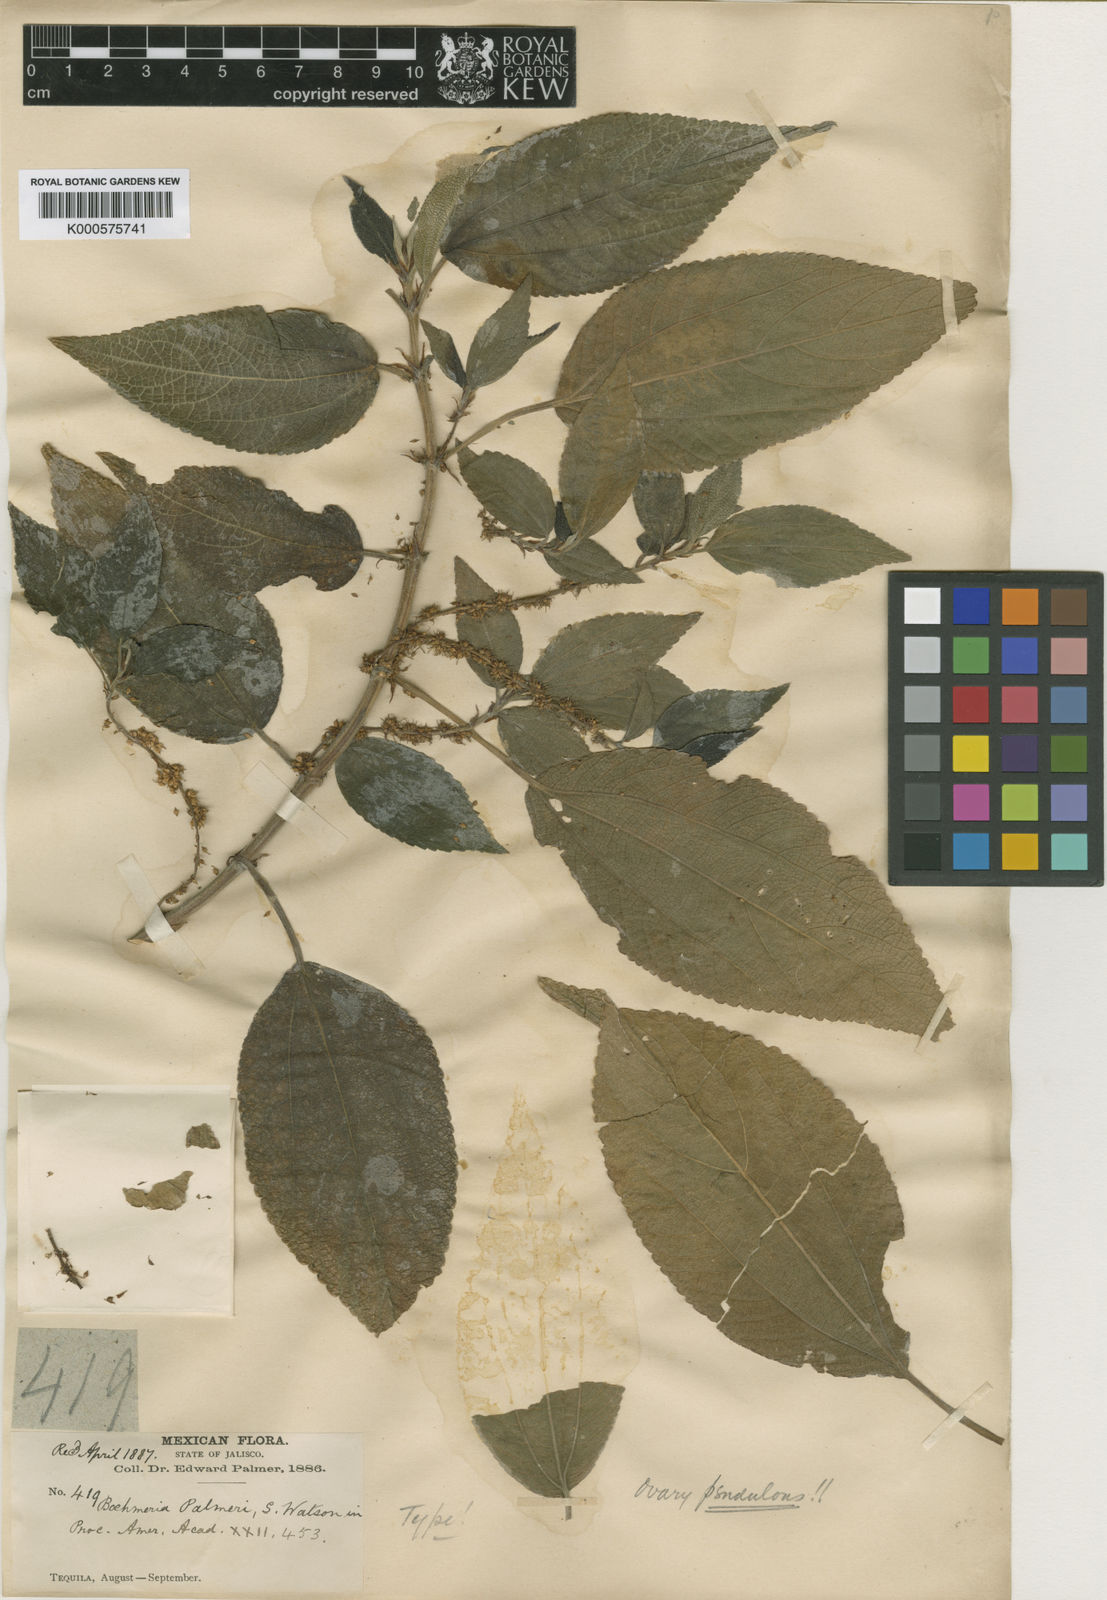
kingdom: Plantae
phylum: Tracheophyta
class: Magnoliopsida
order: Rosales
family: Urticaceae
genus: Boehmeria
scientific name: Boehmeria caudata
